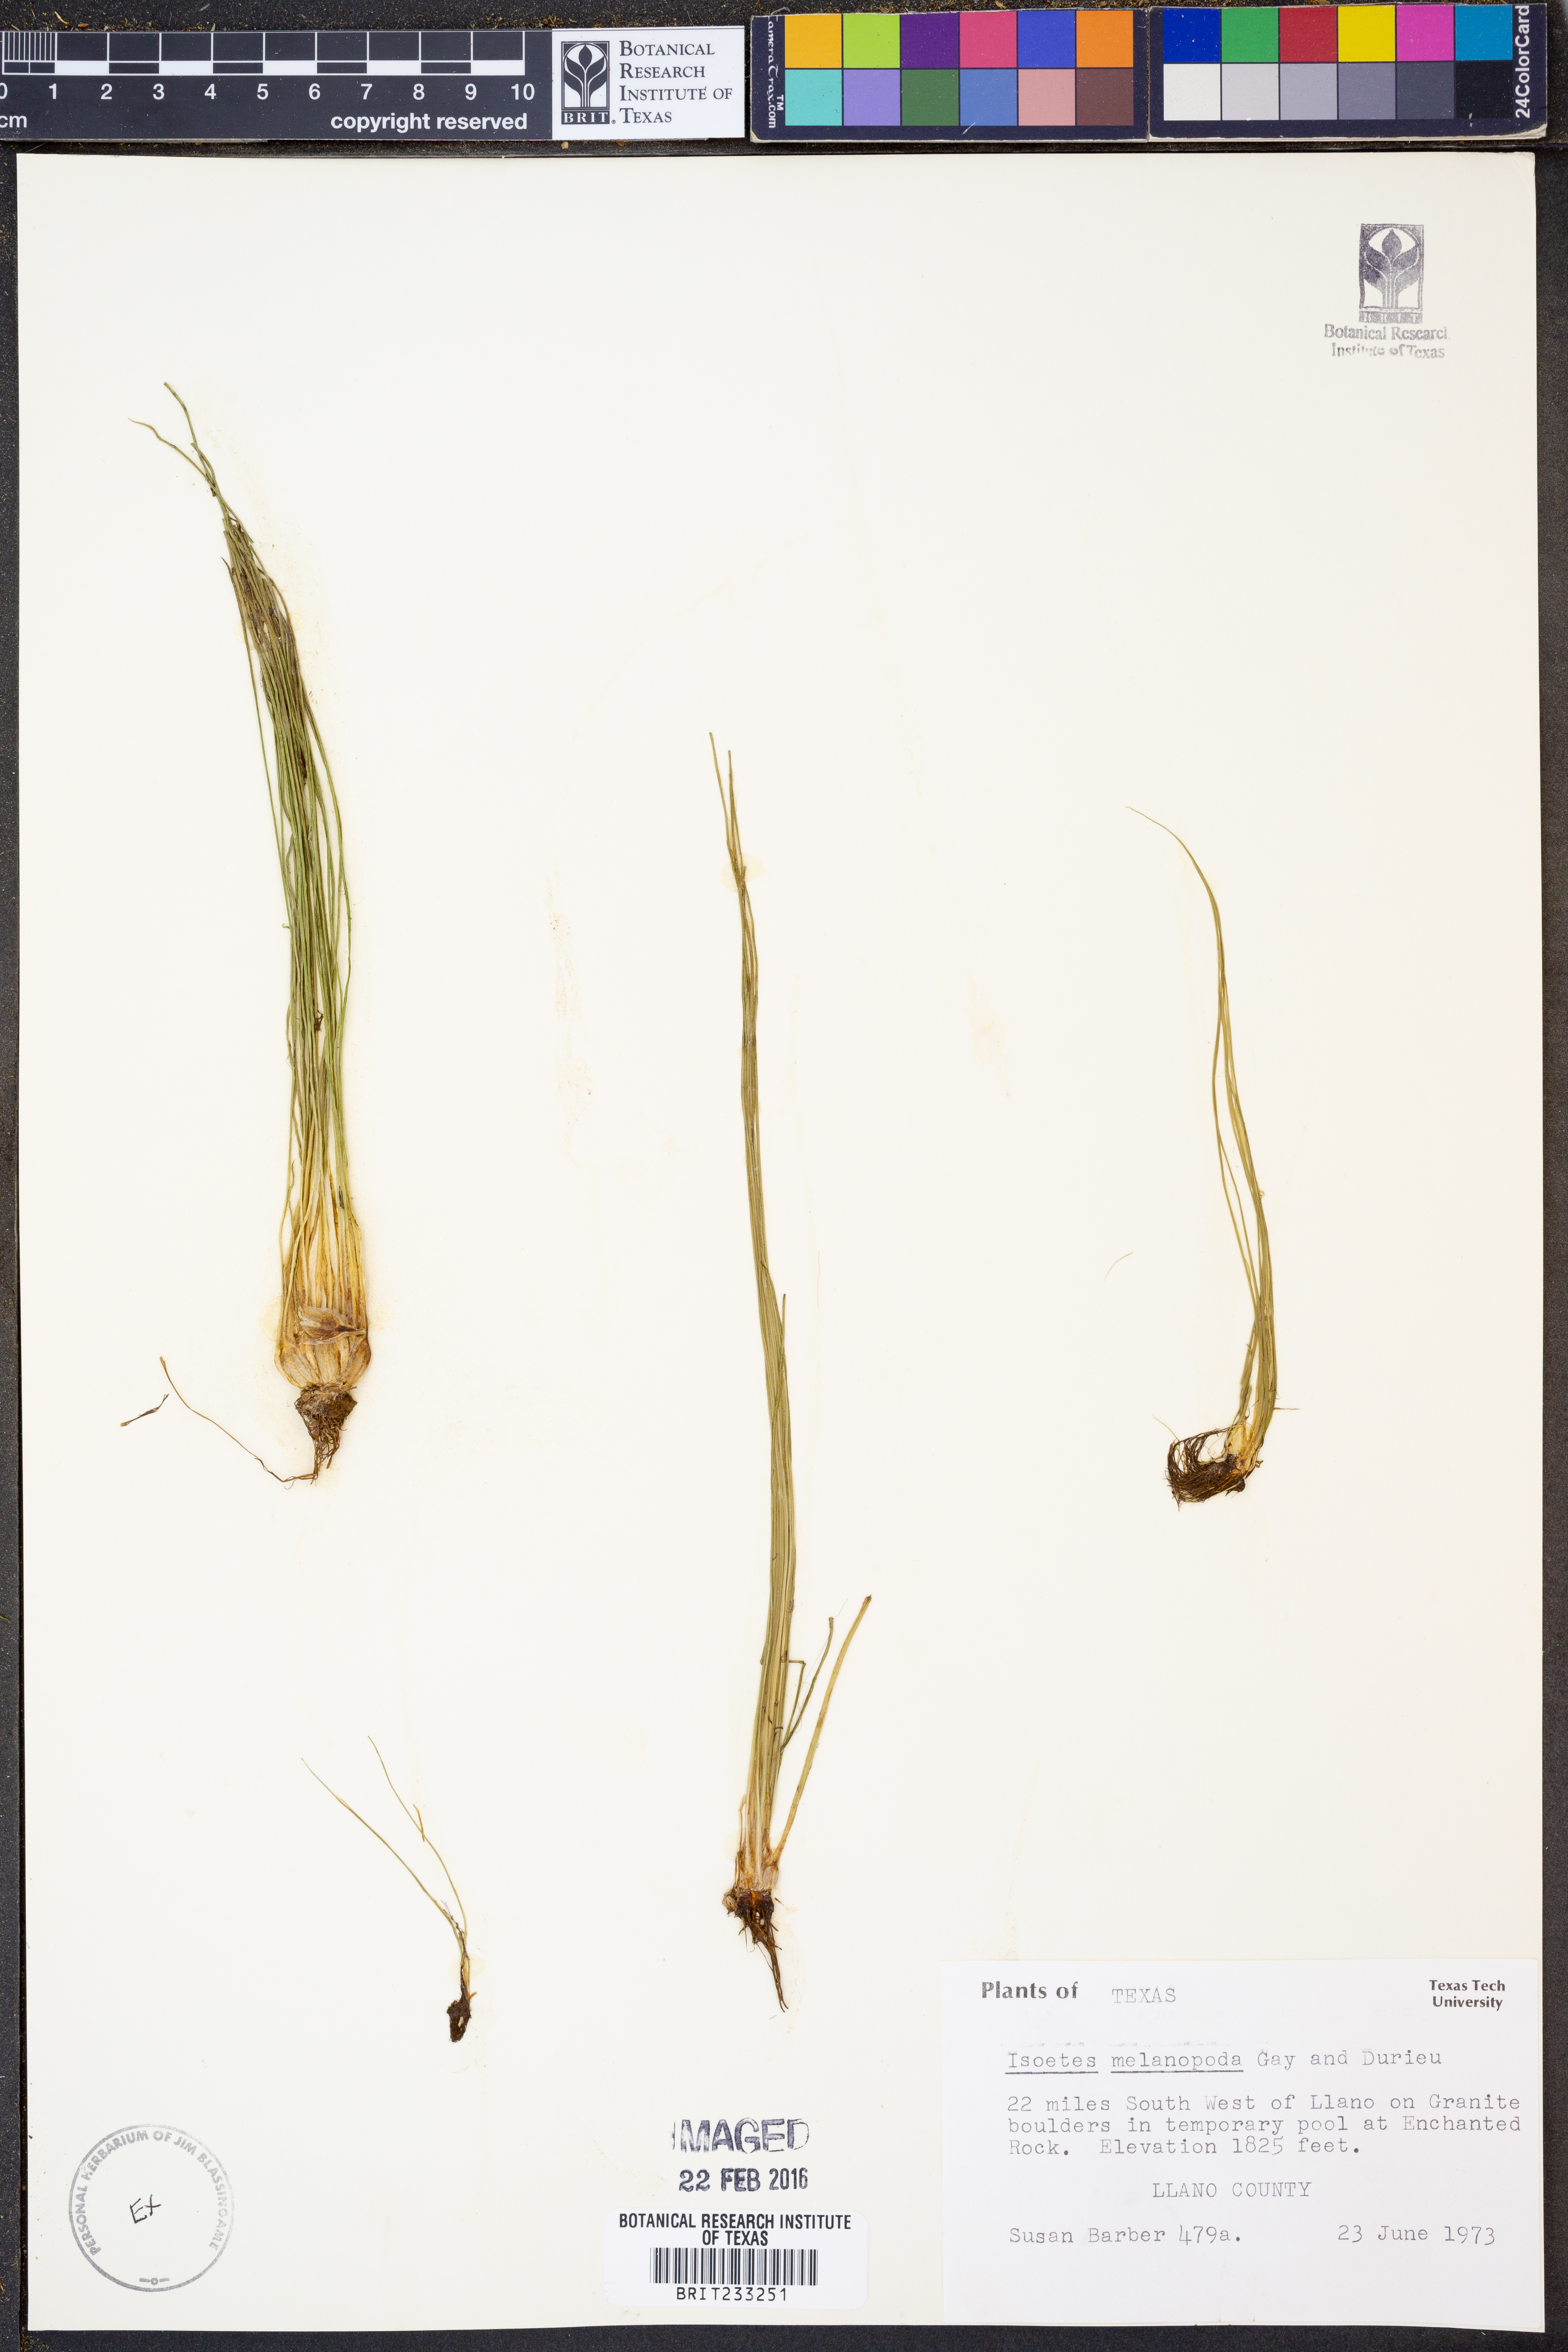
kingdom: Plantae
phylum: Tracheophyta
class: Lycopodiopsida
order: Isoetales
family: Isoetaceae
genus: Isoetes
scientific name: Isoetes melanopoda
